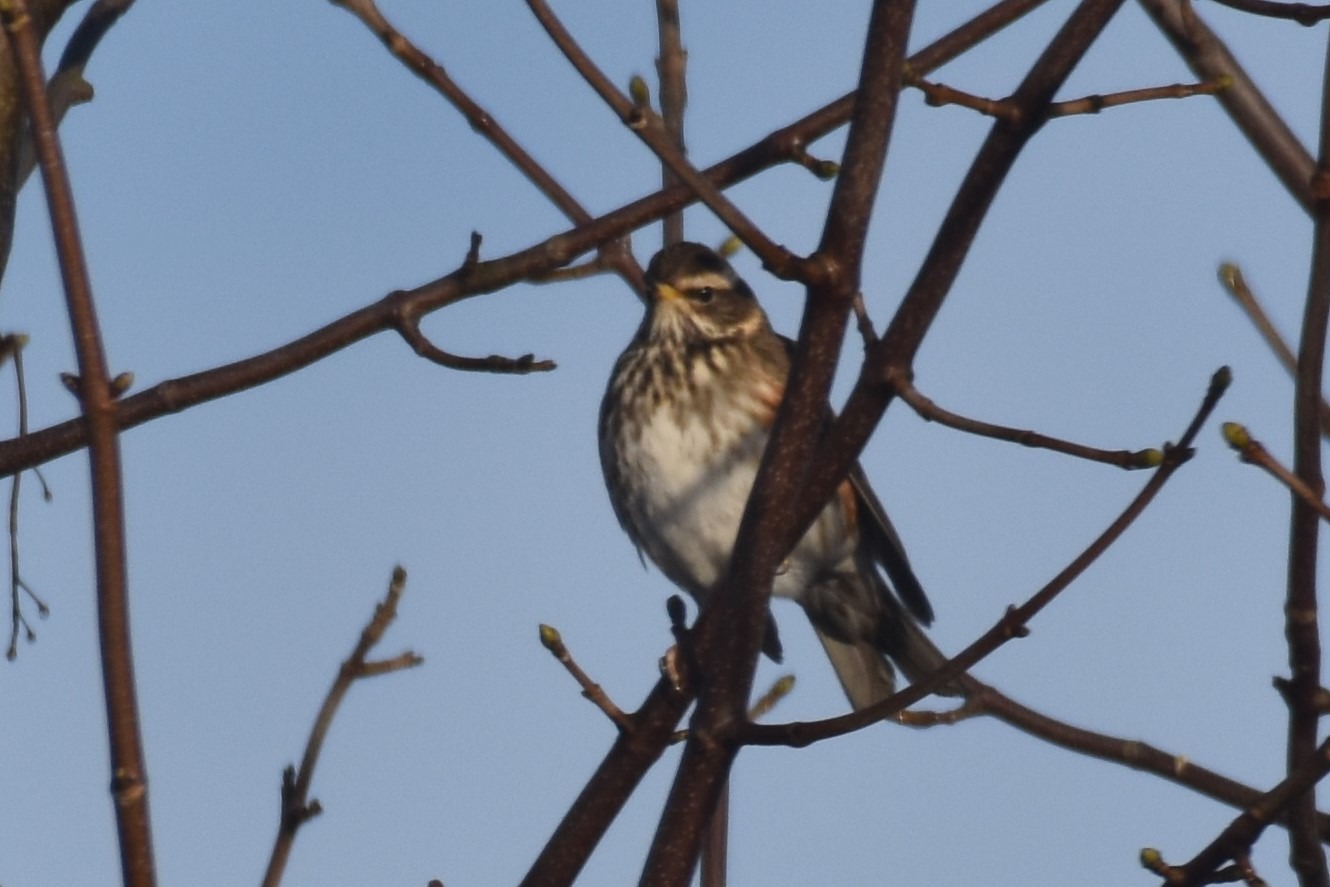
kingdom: Animalia
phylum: Chordata
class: Aves
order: Passeriformes
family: Turdidae
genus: Turdus
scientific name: Turdus iliacus
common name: Vindrossel
